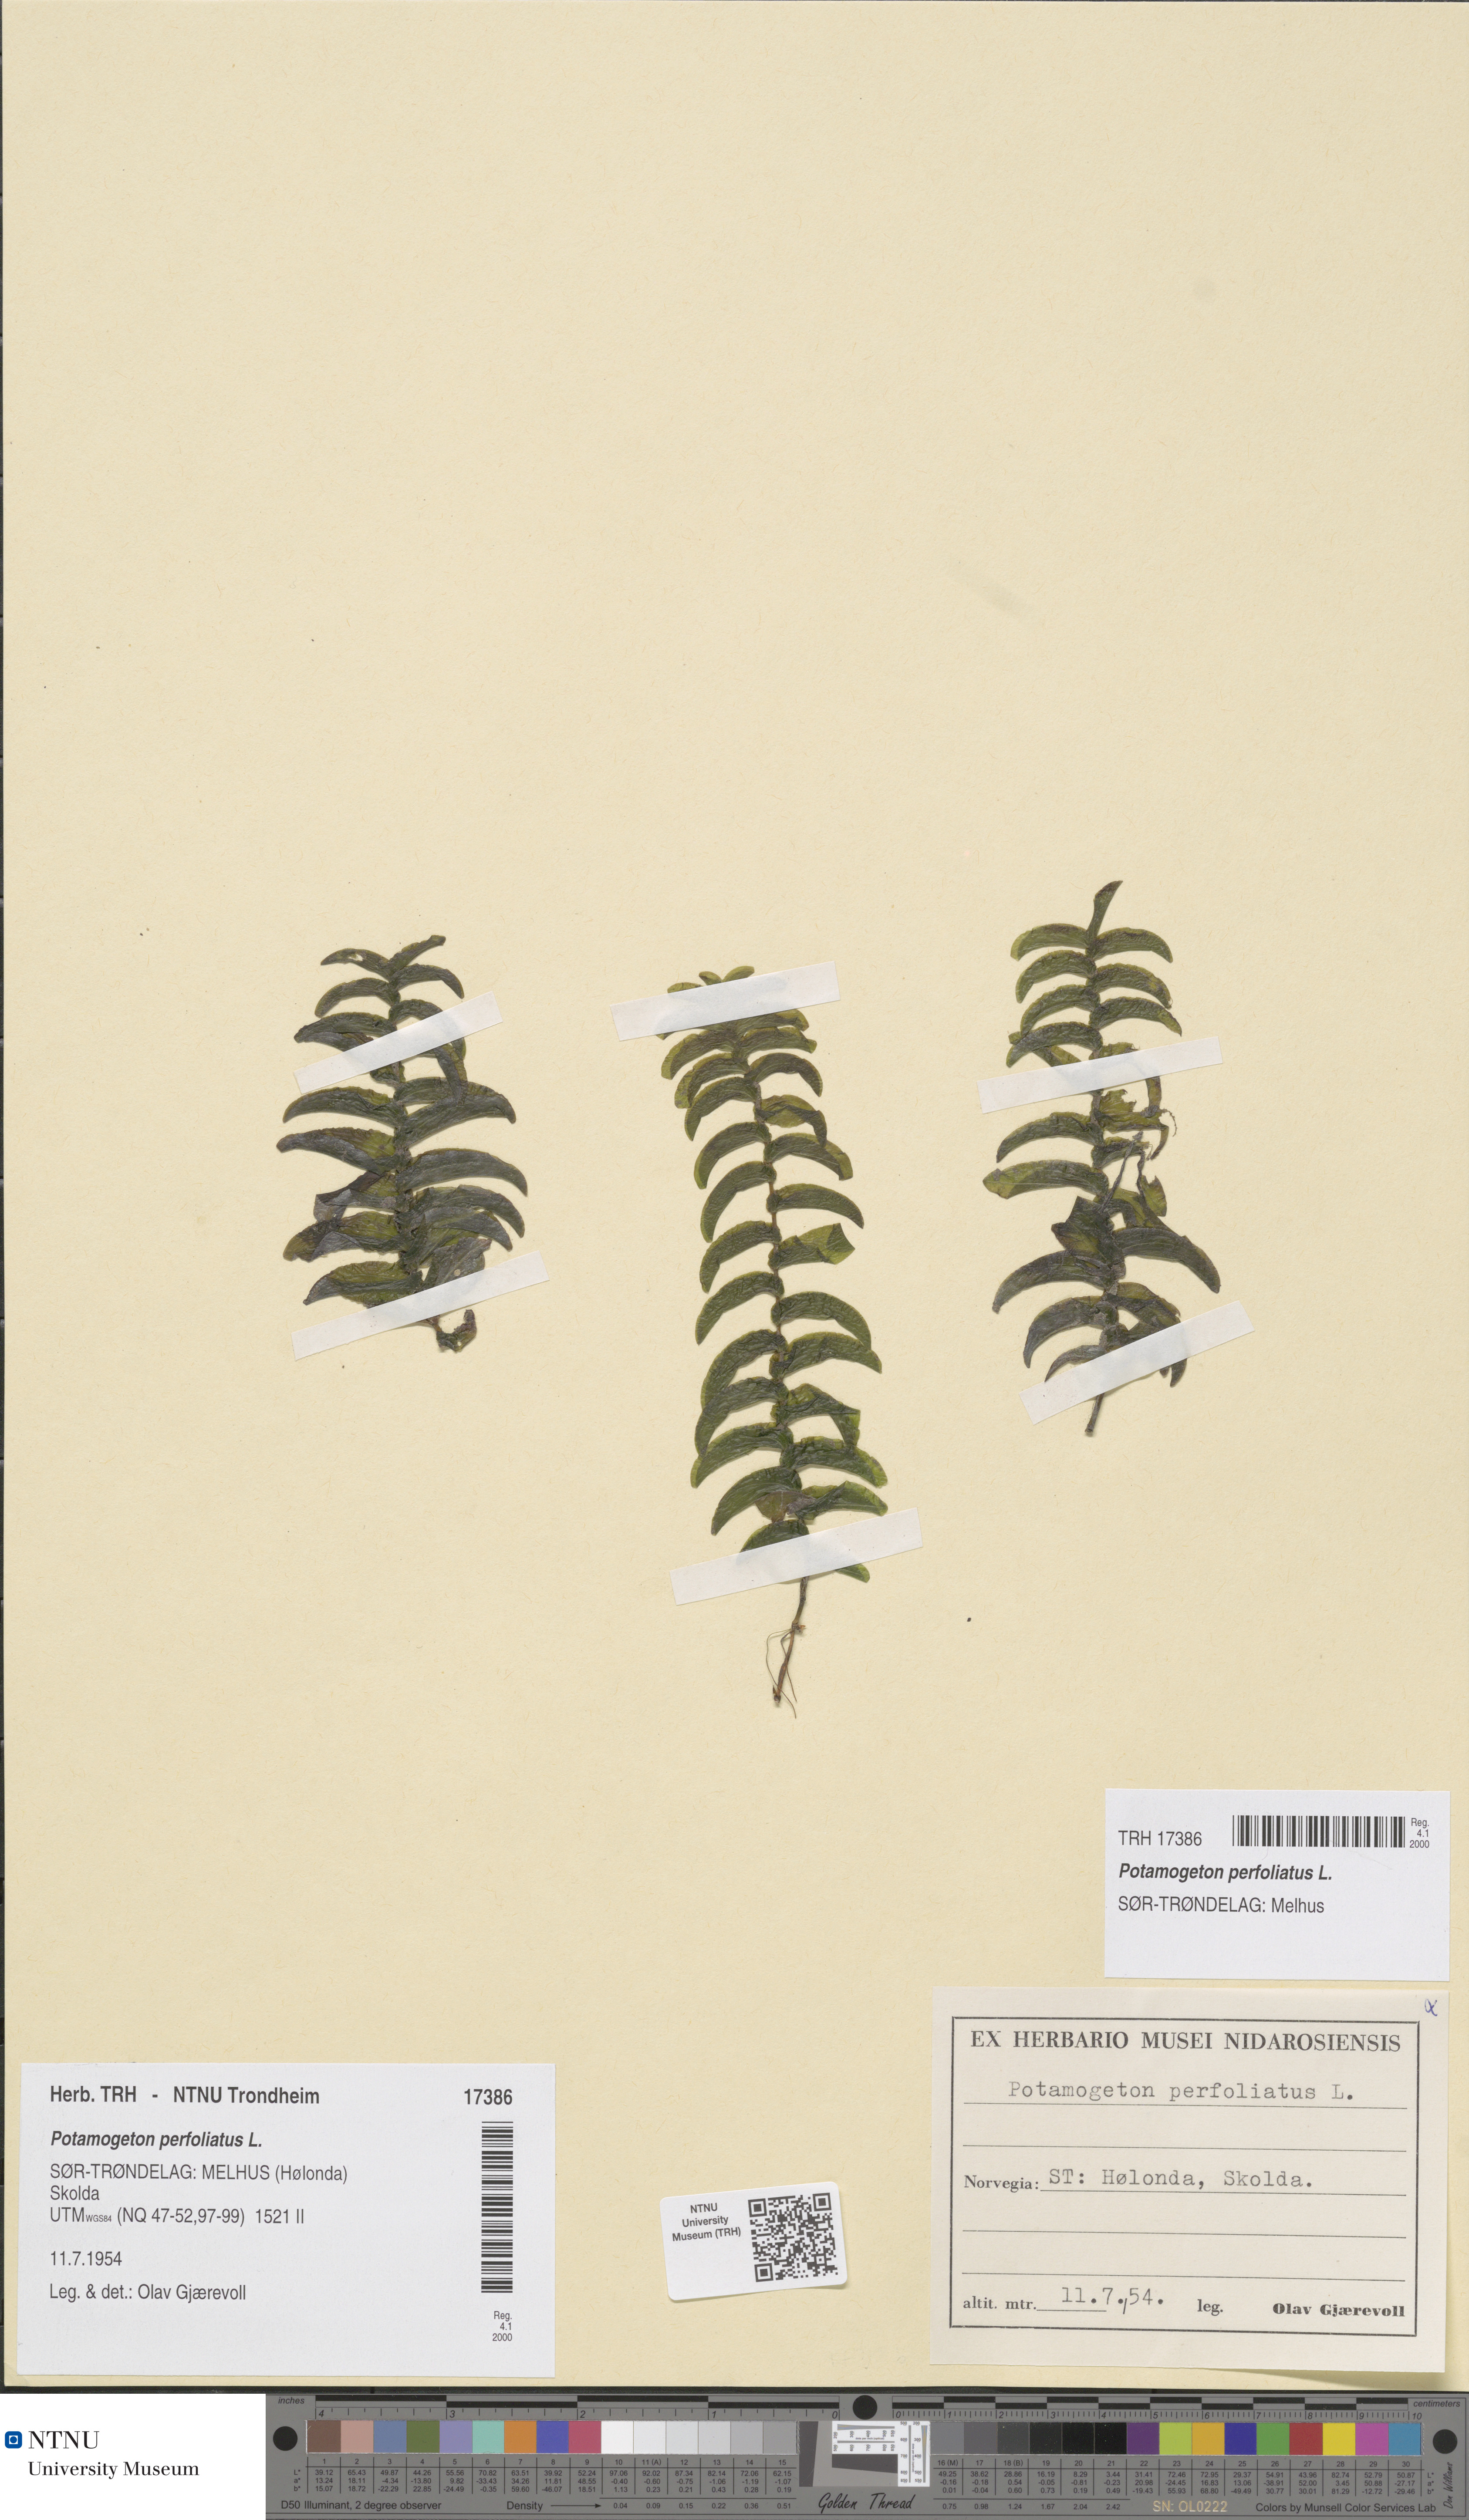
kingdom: Plantae
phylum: Tracheophyta
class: Liliopsida
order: Alismatales
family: Potamogetonaceae
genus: Potamogeton
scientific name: Potamogeton perfoliatus
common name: Perfoliate pondweed
